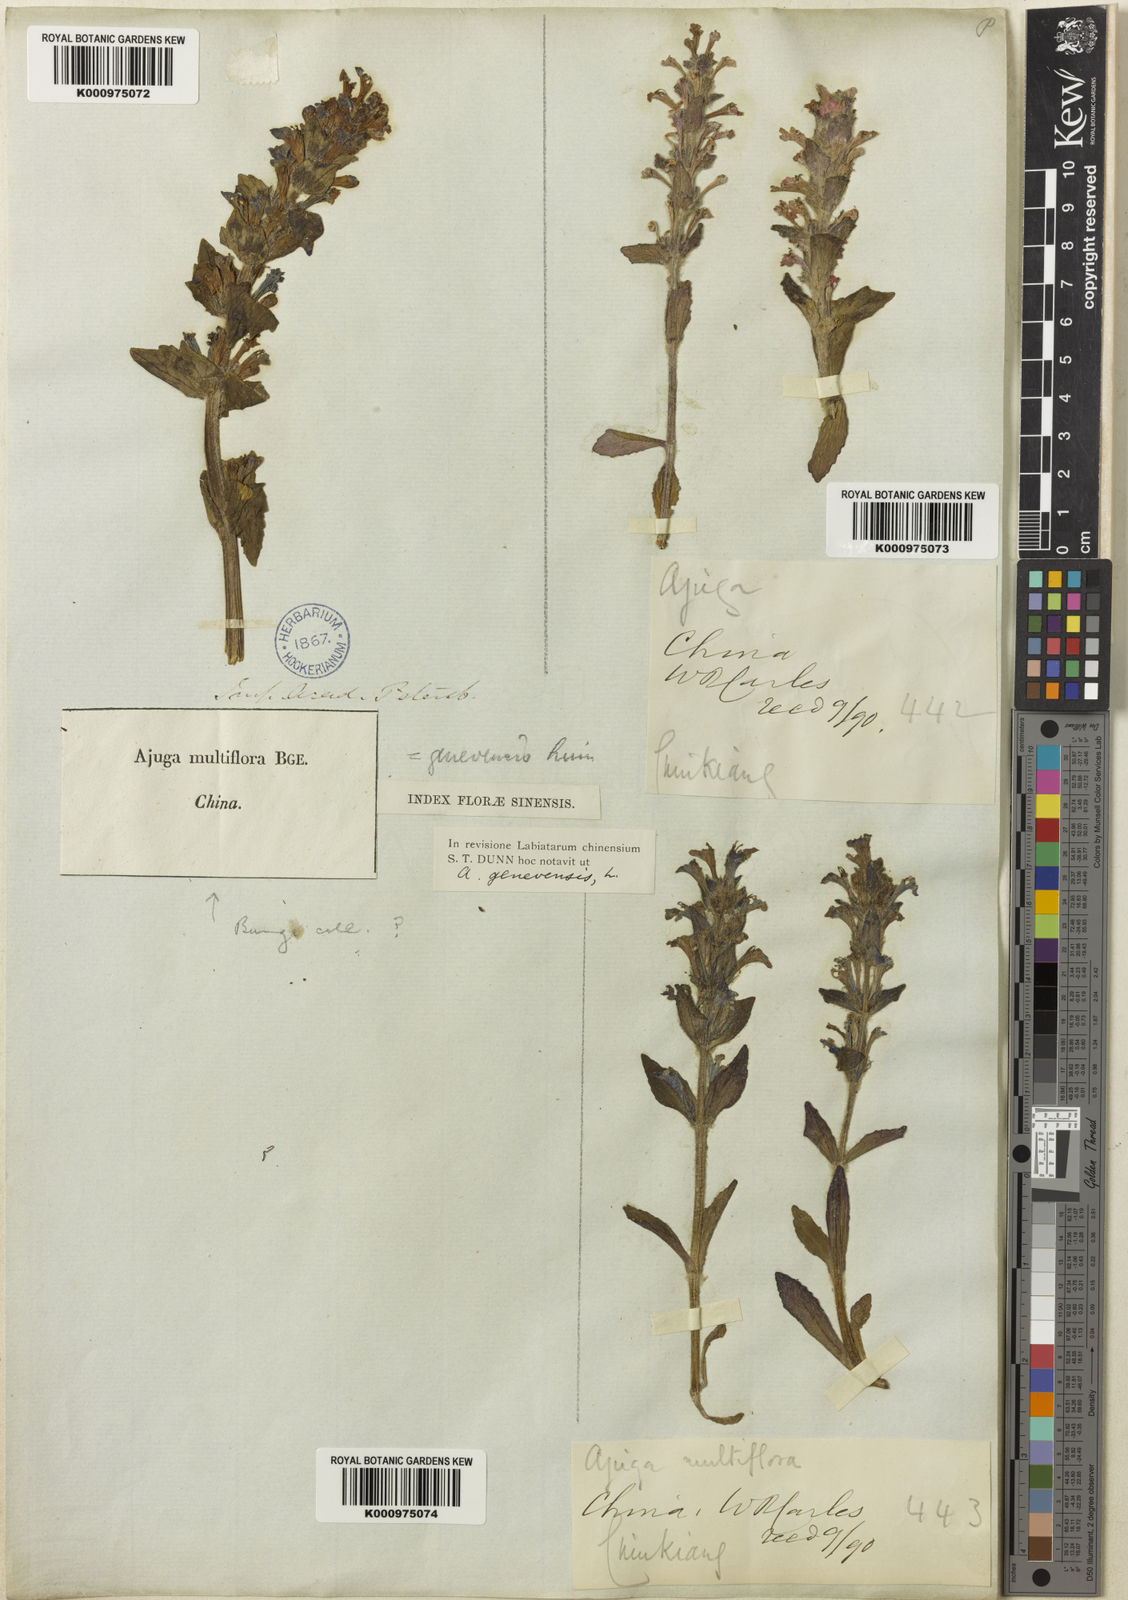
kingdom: Plantae
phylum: Tracheophyta
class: Magnoliopsida
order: Lamiales
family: Lamiaceae
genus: Ajuga
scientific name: Ajuga multiflora
